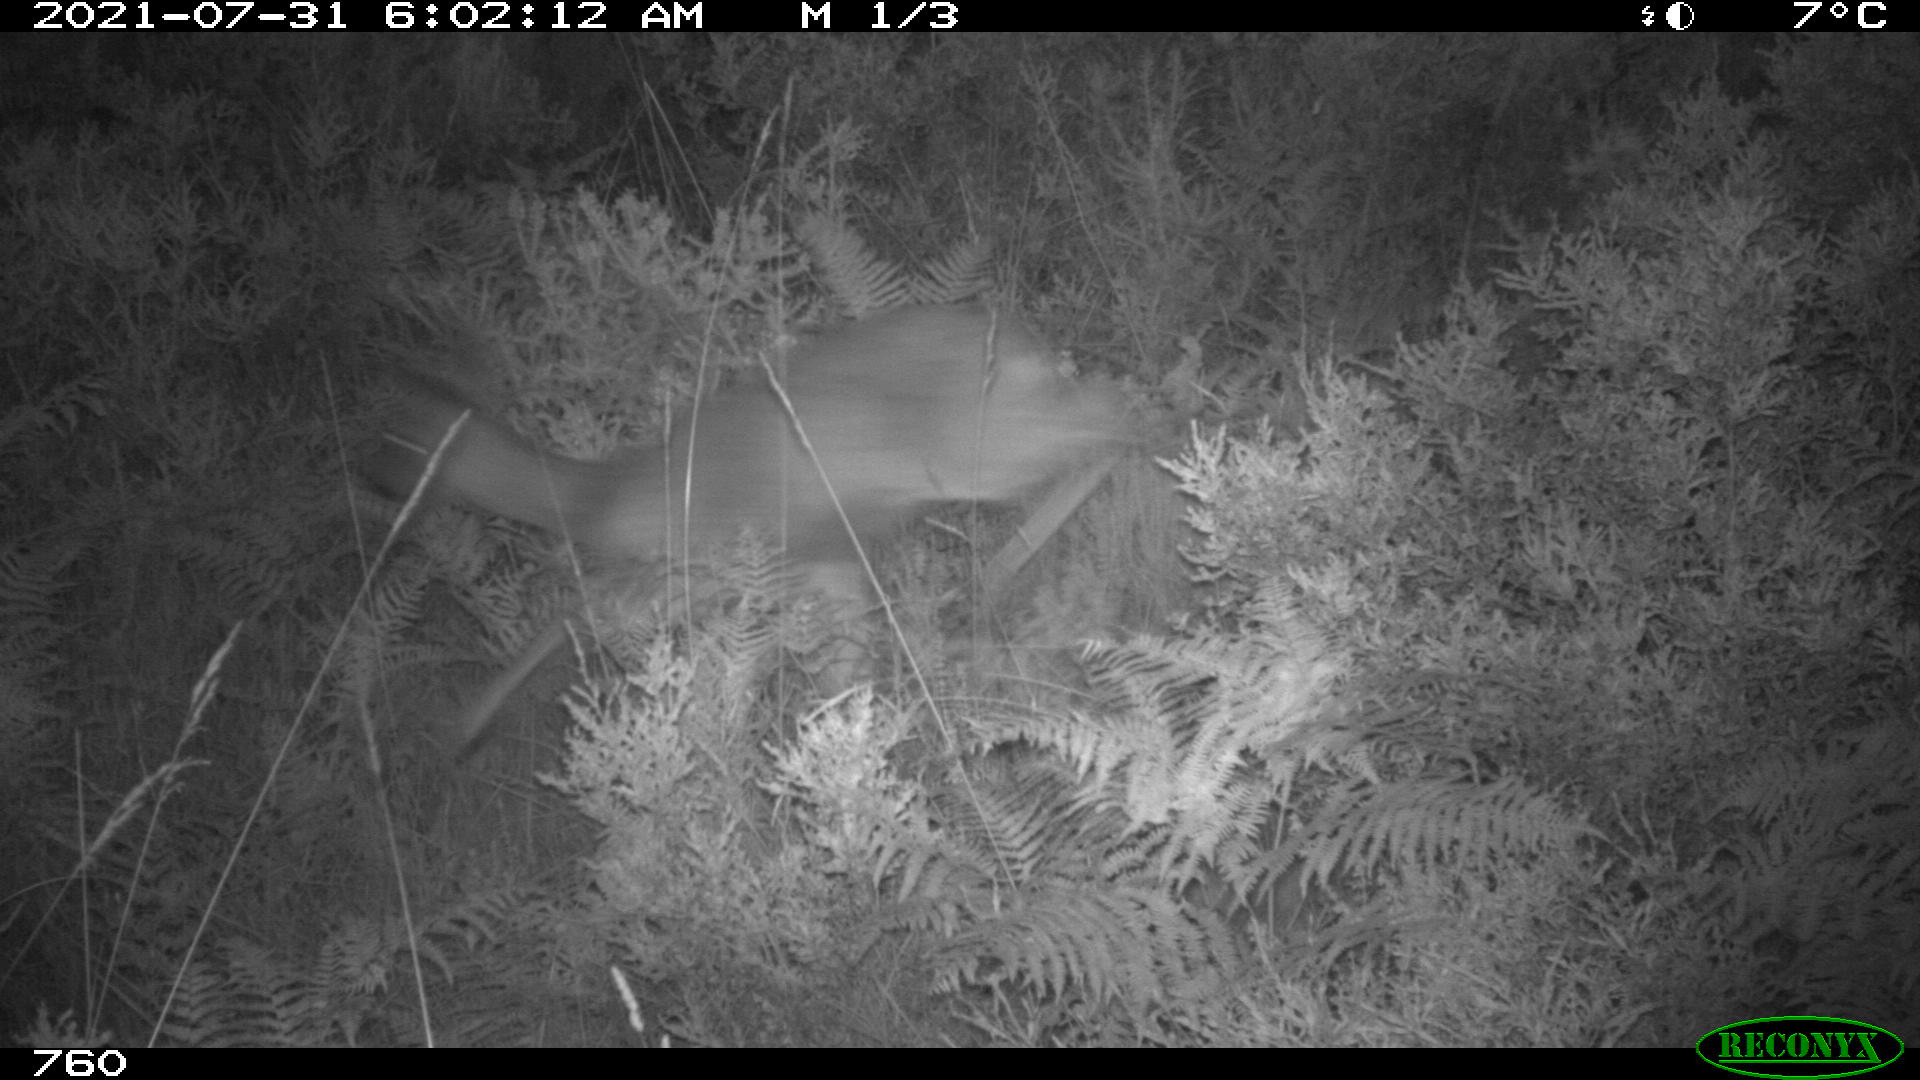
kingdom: Animalia
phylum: Chordata
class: Mammalia
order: Artiodactyla
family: Cervidae
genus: Capreolus
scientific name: Capreolus capreolus
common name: Western roe deer
